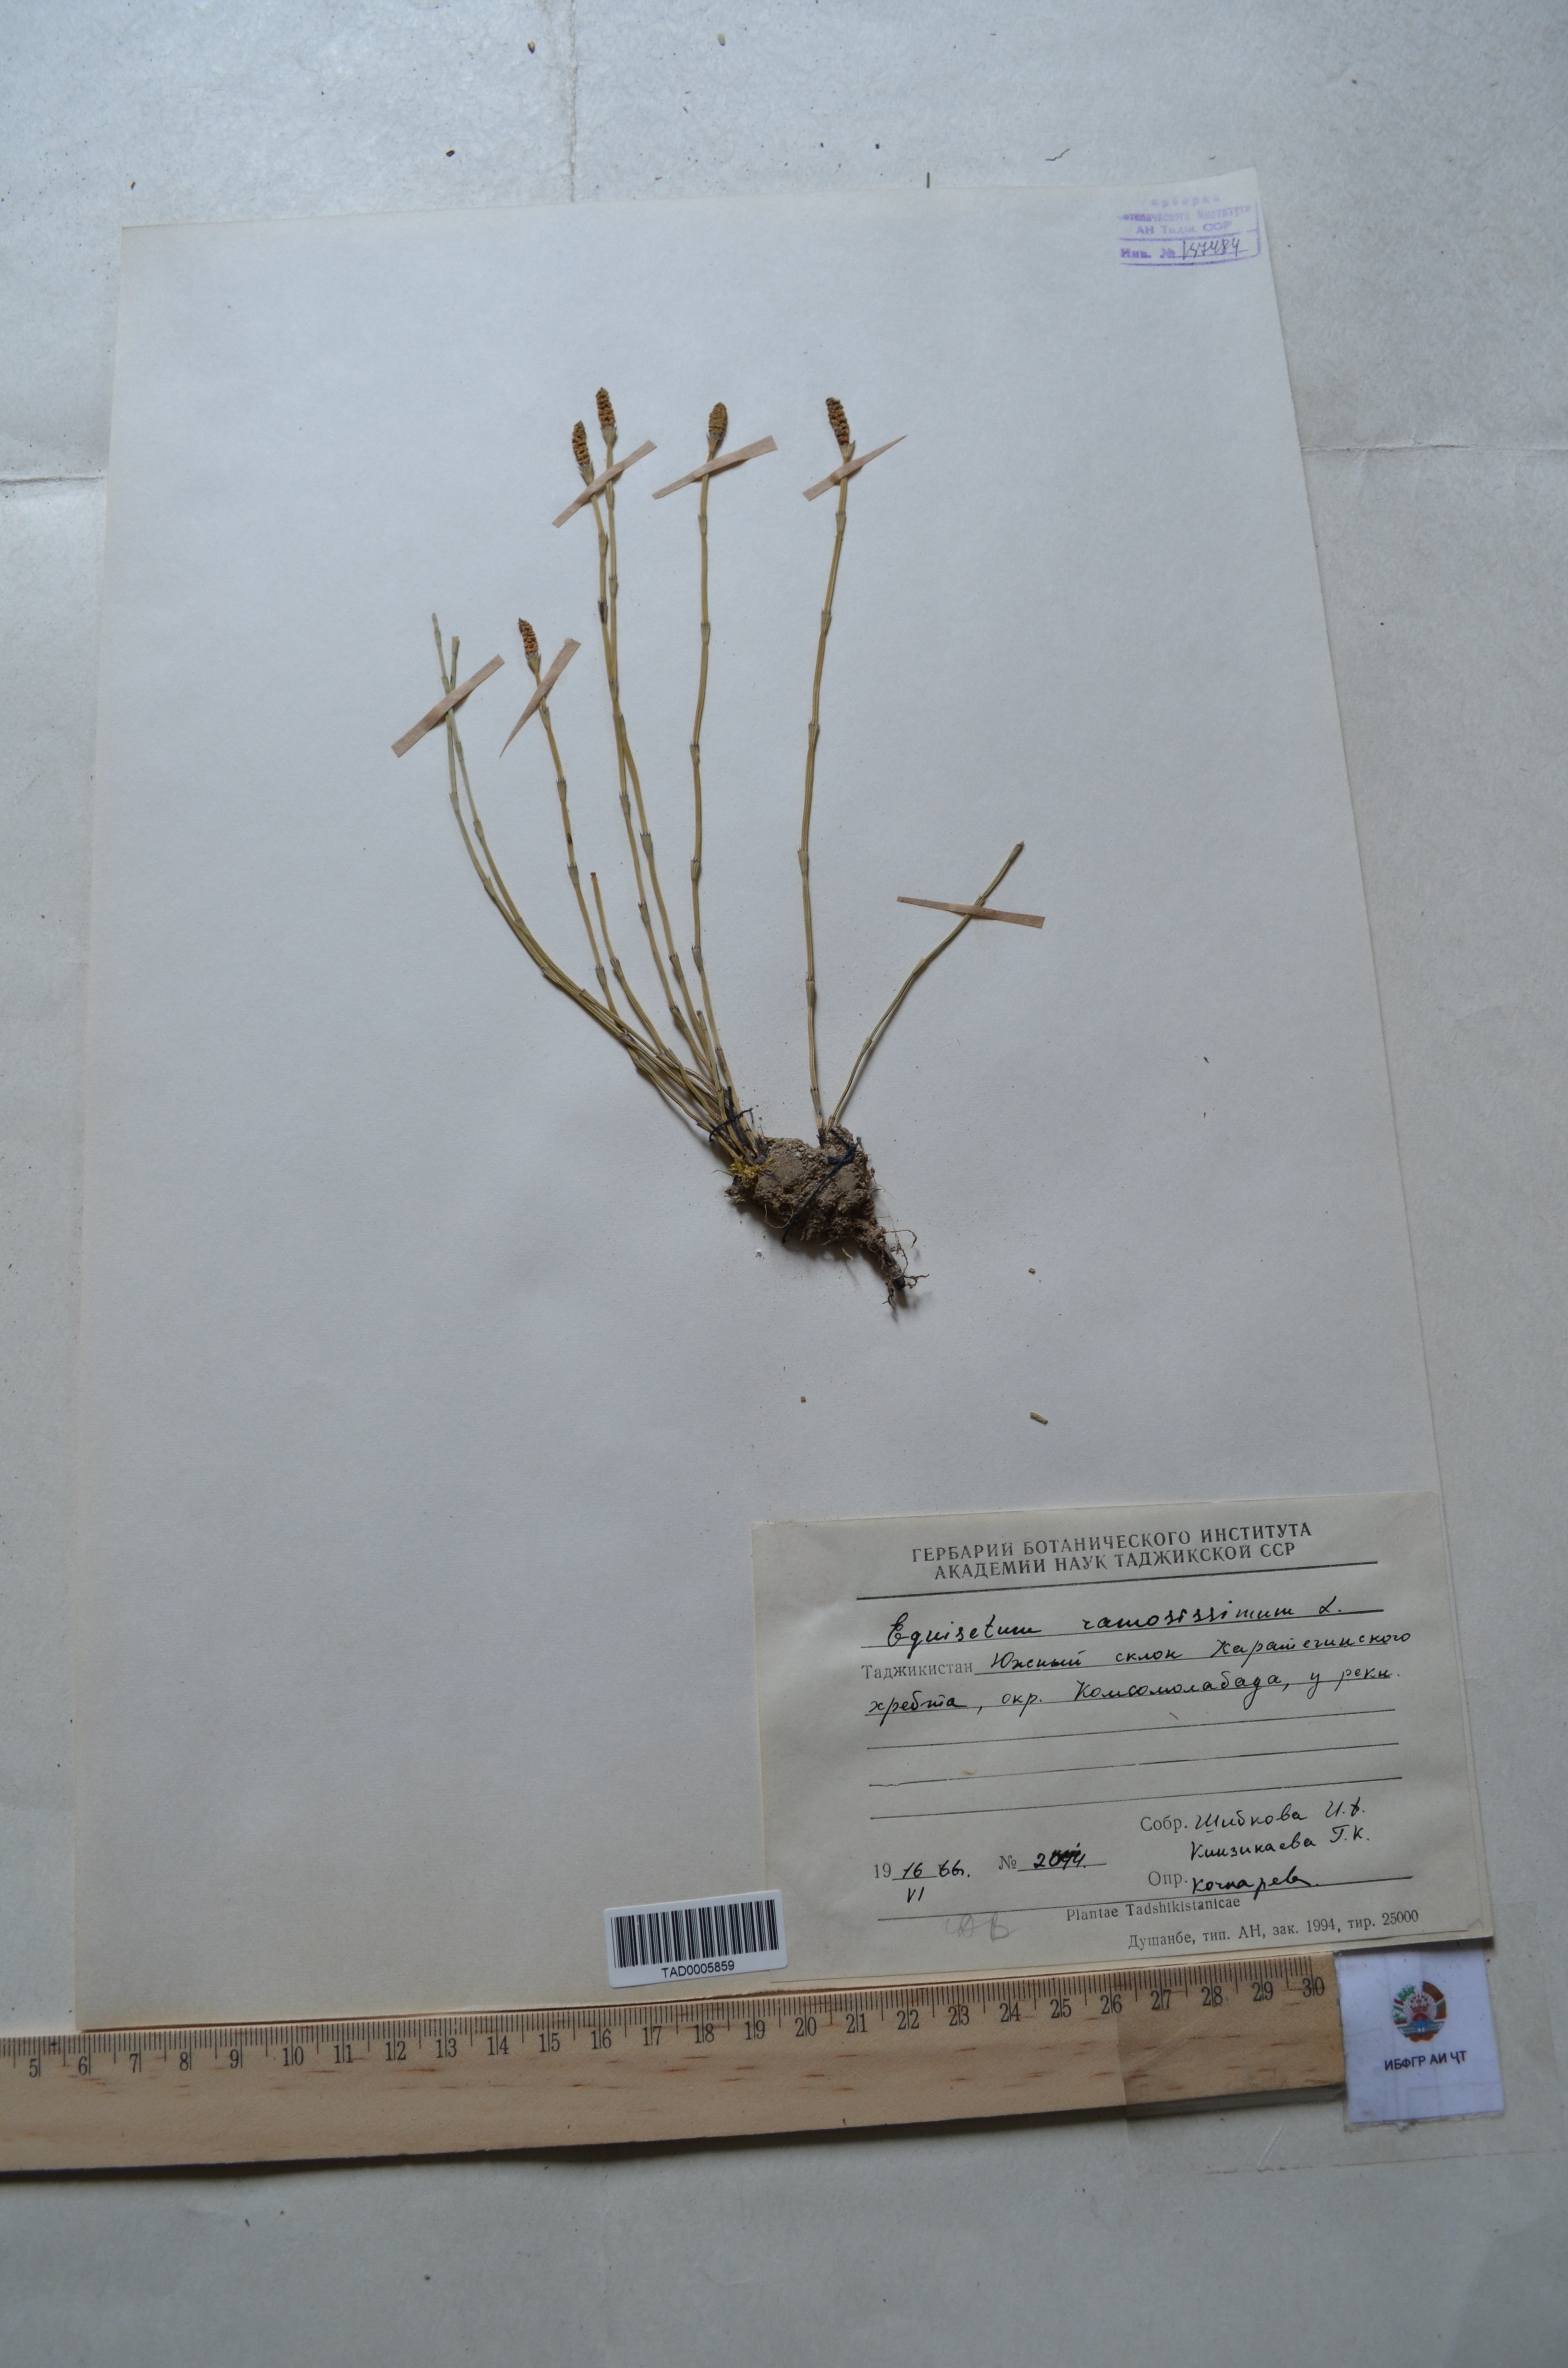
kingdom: Plantae
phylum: Tracheophyta
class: Polypodiopsida
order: Equisetales
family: Equisetaceae
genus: Equisetum
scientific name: Equisetum ramosissimum
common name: Branched horsetail
